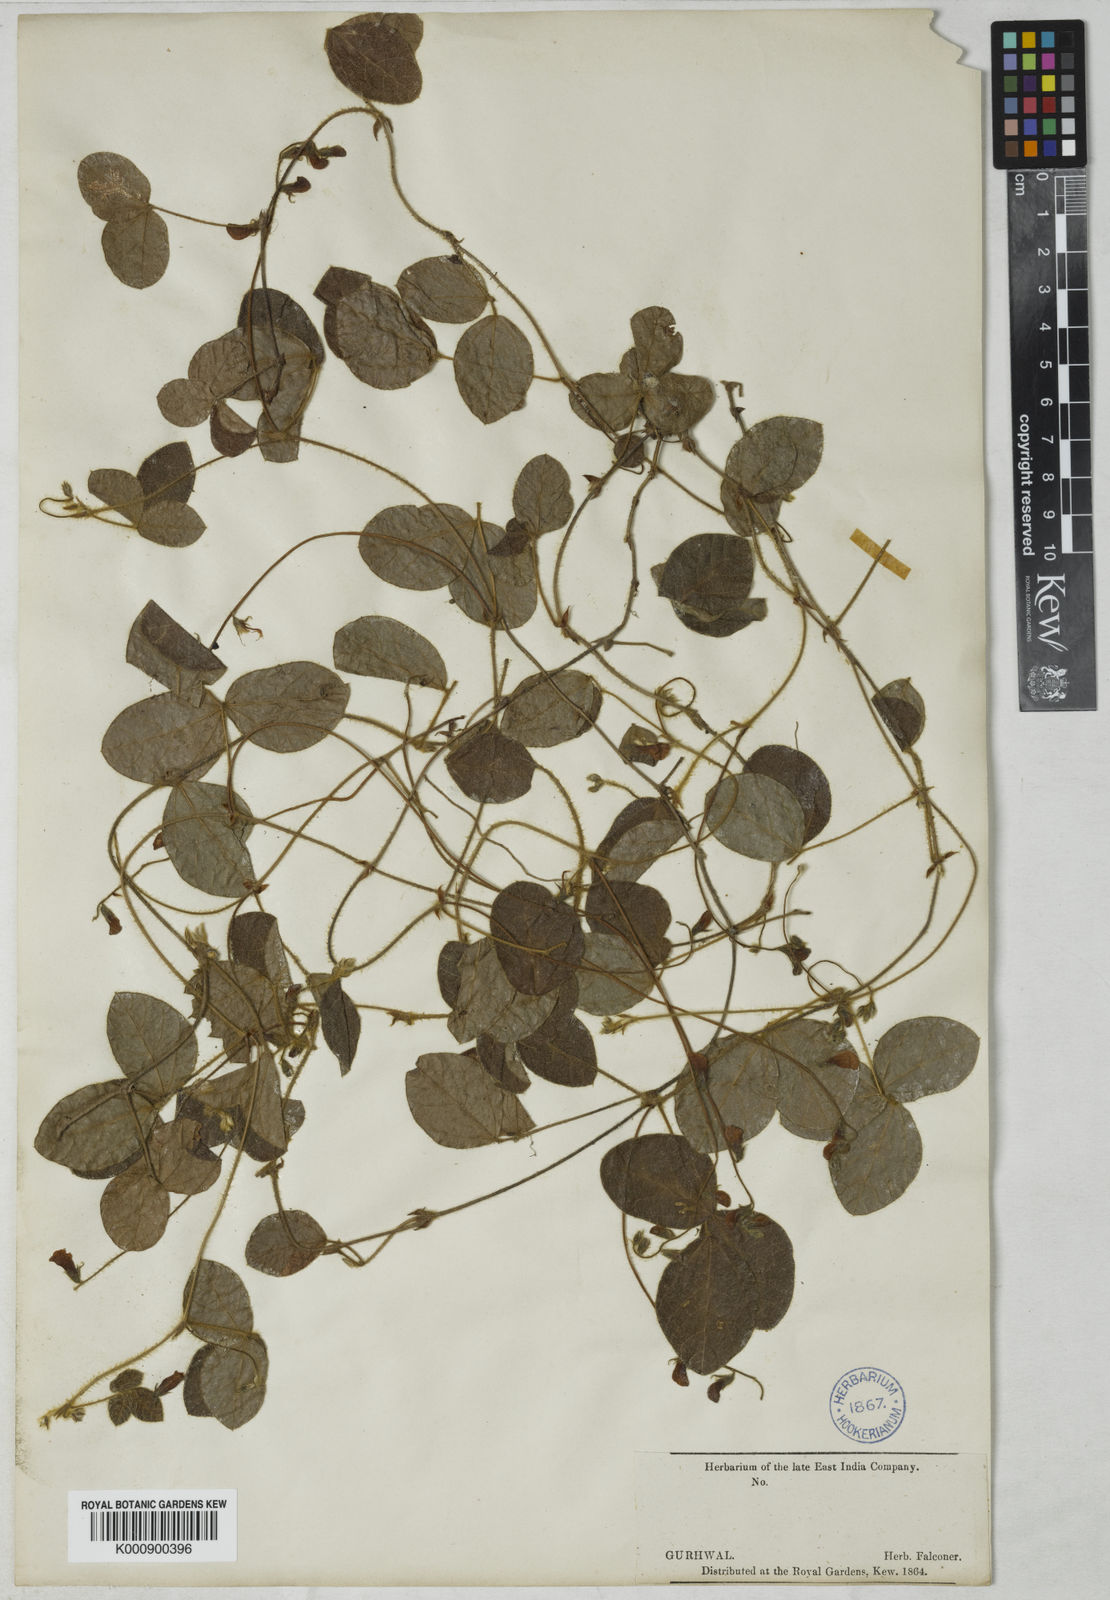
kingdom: Plantae
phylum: Tracheophyta
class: Magnoliopsida
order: Fabales
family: Fabaceae
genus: Rhynchosia
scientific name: Rhynchosia falconeri
